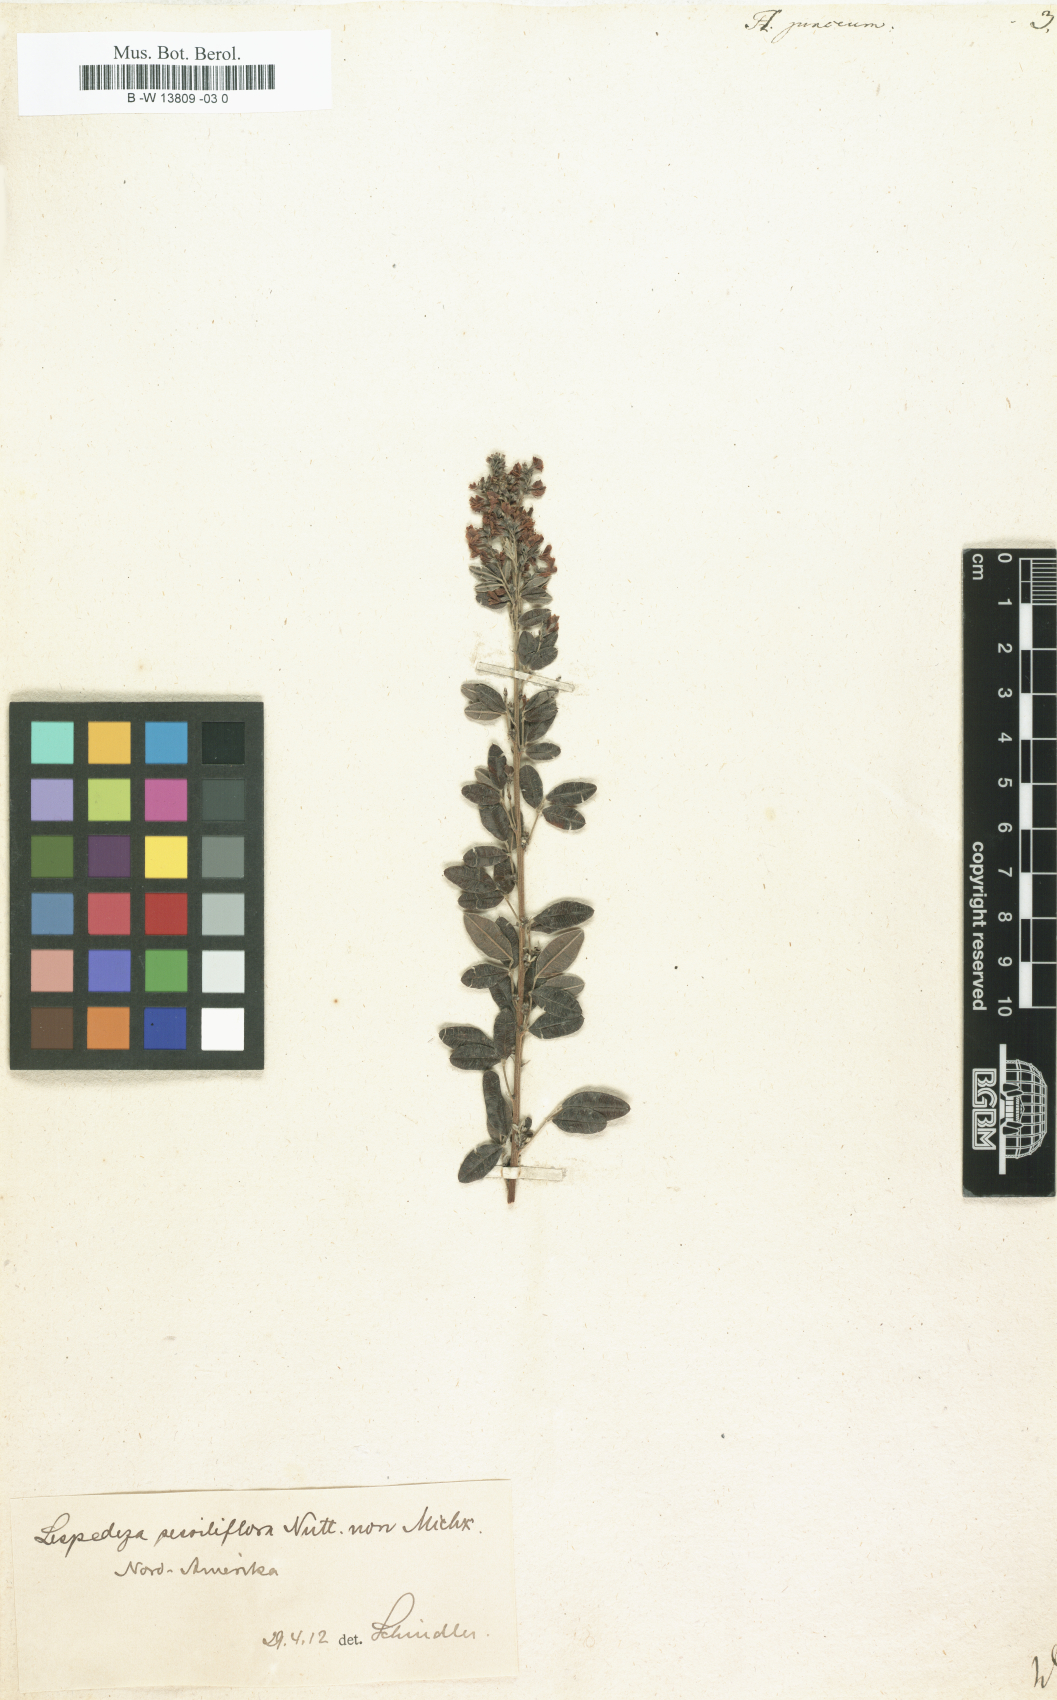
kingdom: Plantae
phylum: Tracheophyta
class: Magnoliopsida
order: Fabales
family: Fabaceae
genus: Lespedeza
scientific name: Lespedeza juncea
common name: Siberian lespedeza
